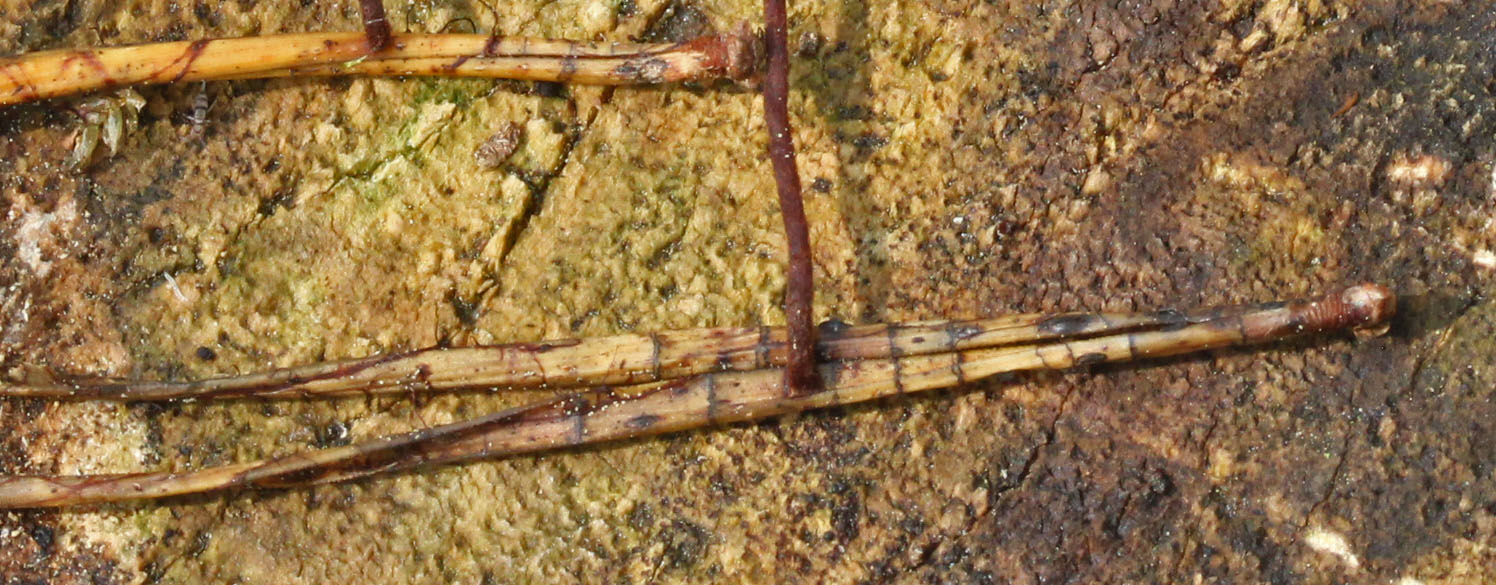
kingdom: Fungi
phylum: Ascomycota
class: Leotiomycetes
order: Rhytismatales
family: Rhytismataceae
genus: Lophodermium
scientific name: Lophodermium pinastri
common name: fyrre-fureplet
